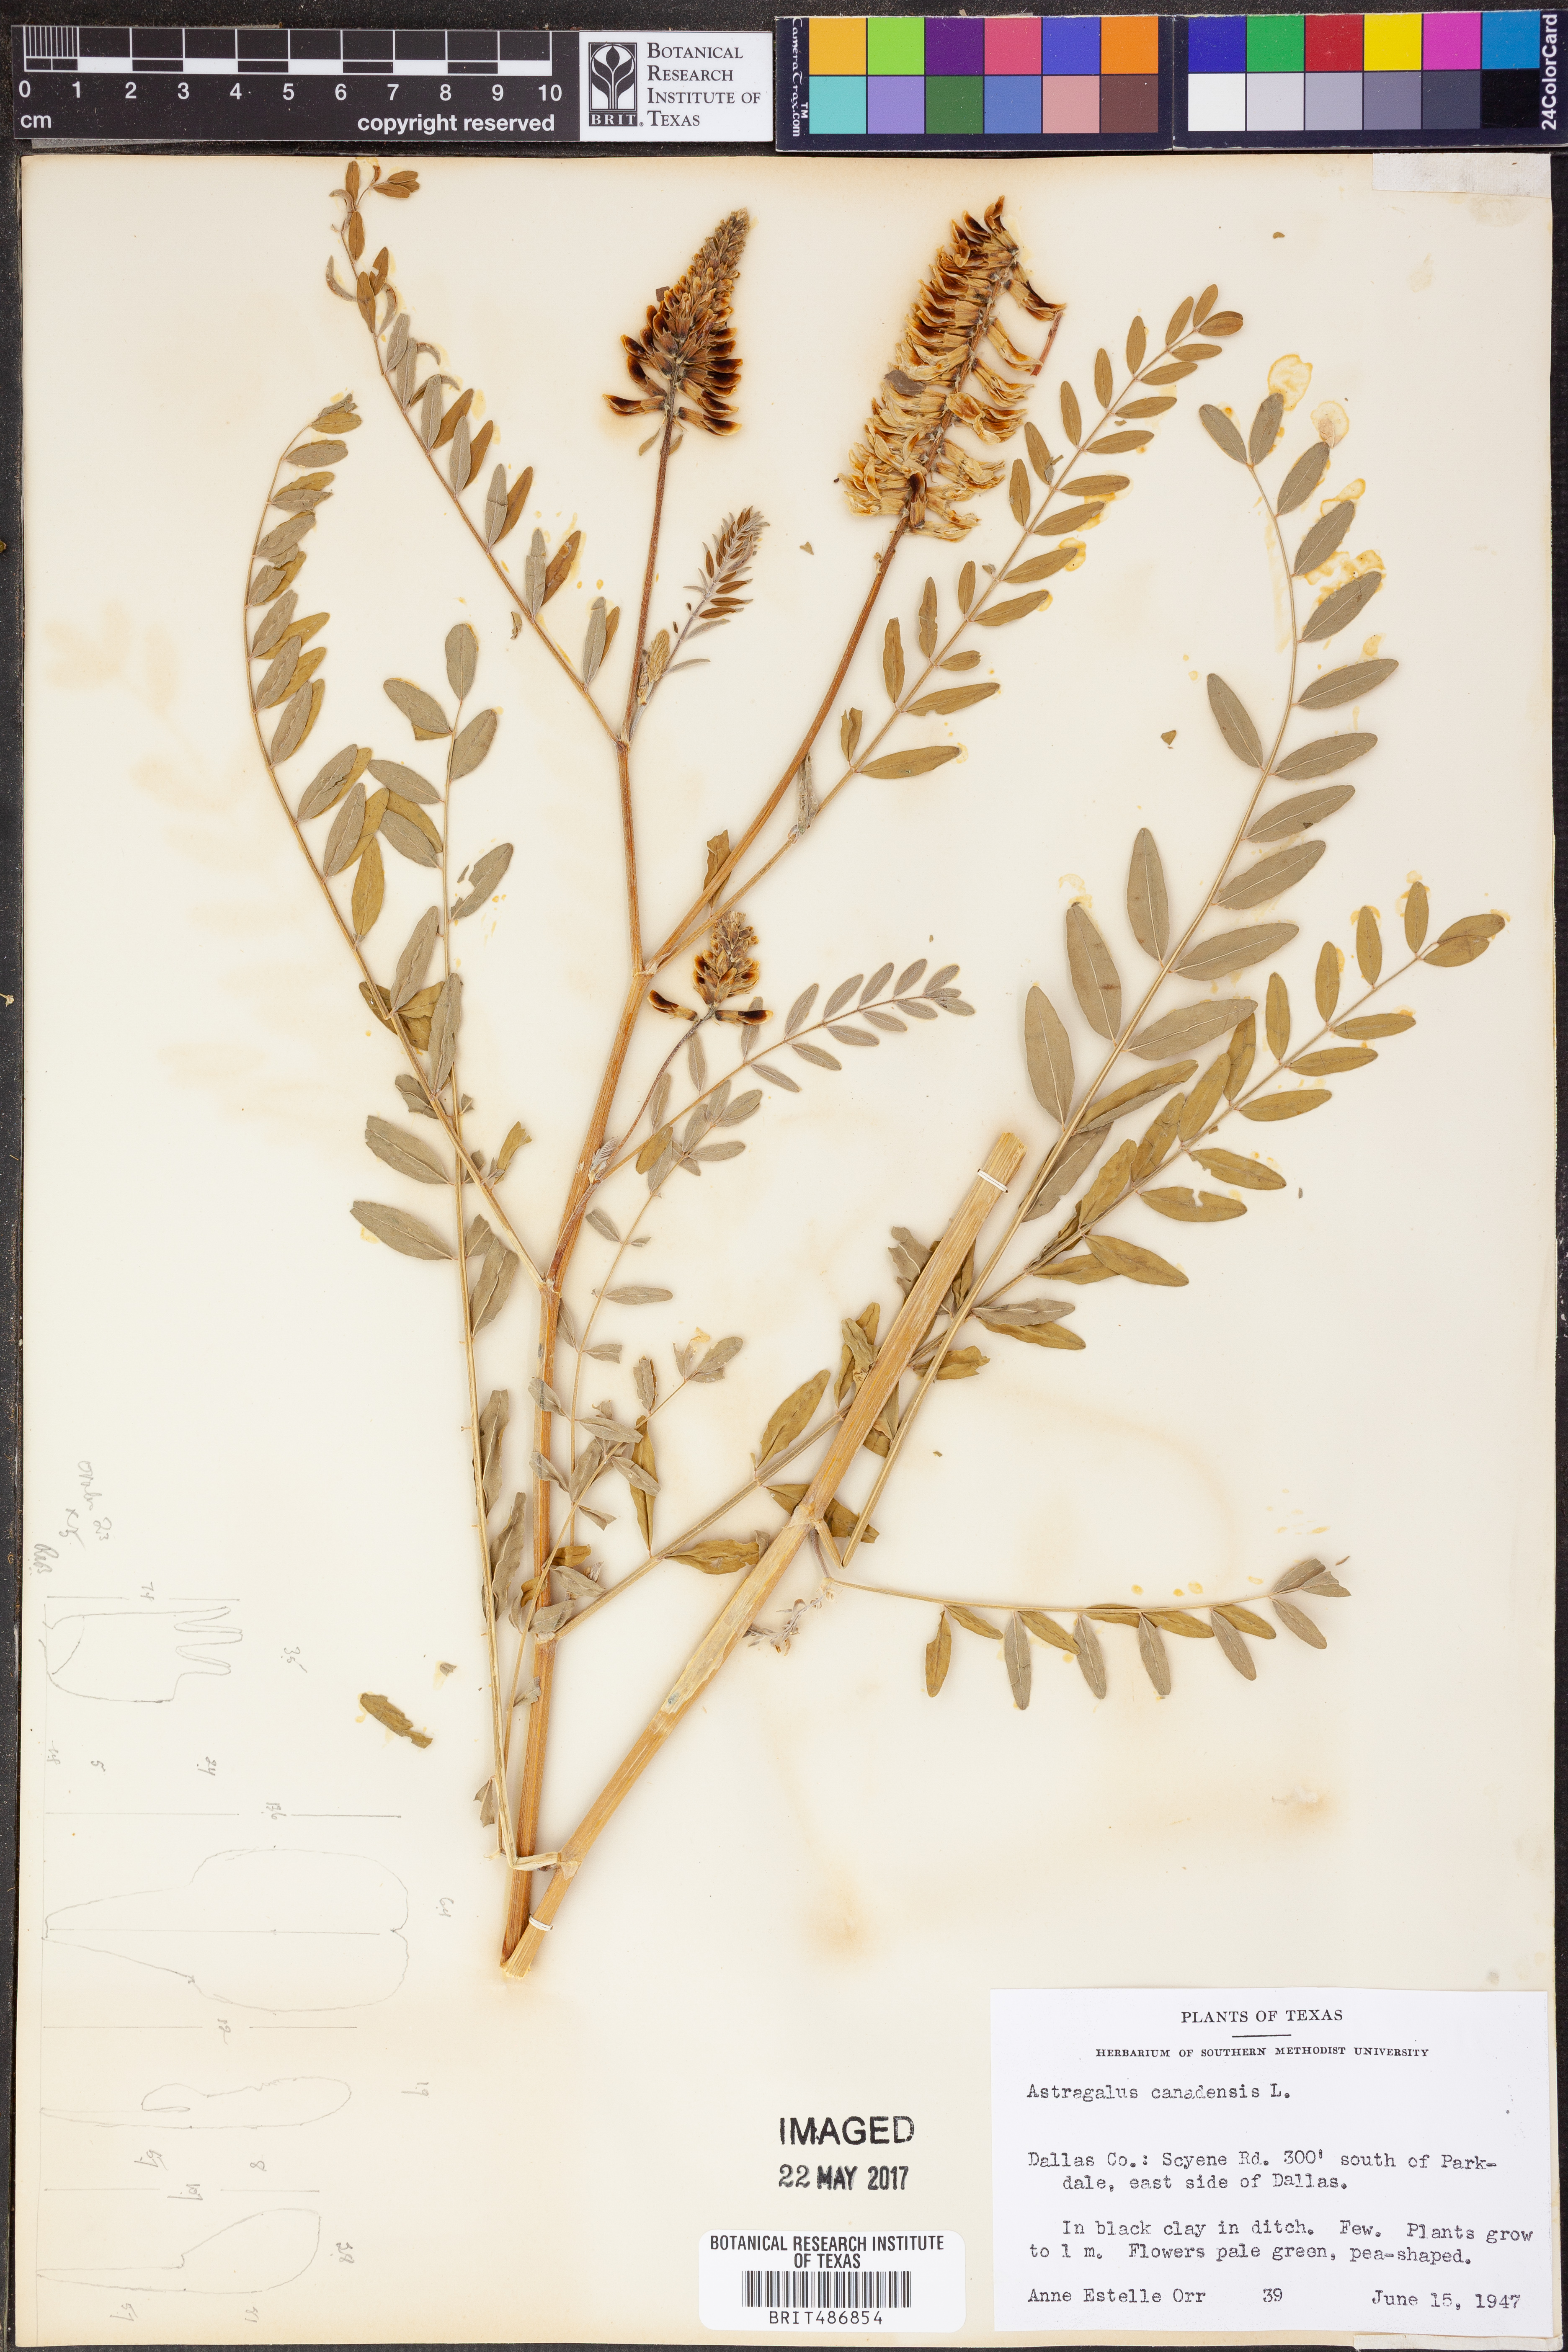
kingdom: Plantae
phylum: Tracheophyta
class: Magnoliopsida
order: Fabales
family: Fabaceae
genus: Astragalus
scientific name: Astragalus canadensis
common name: Canada milk-vetch
